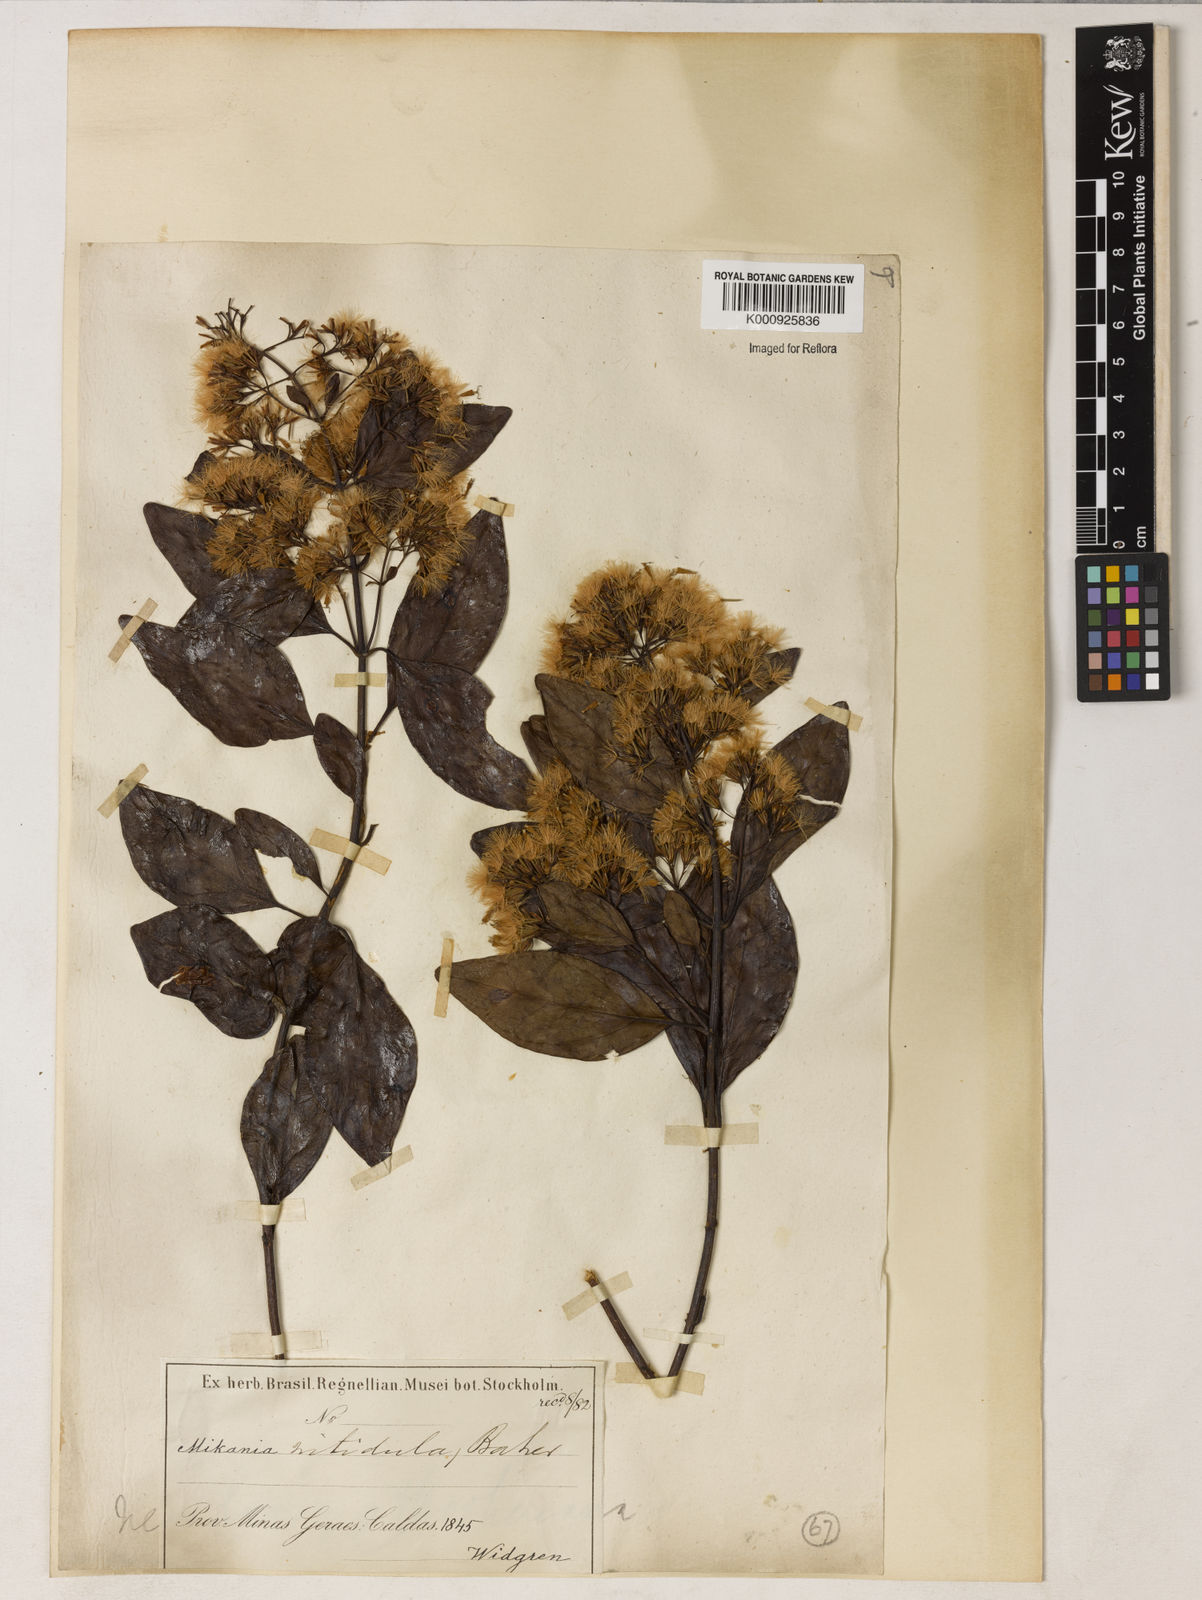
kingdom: Plantae
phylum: Tracheophyta
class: Magnoliopsida
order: Asterales
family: Asteraceae
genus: Mikania
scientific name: Mikania lindbergii
